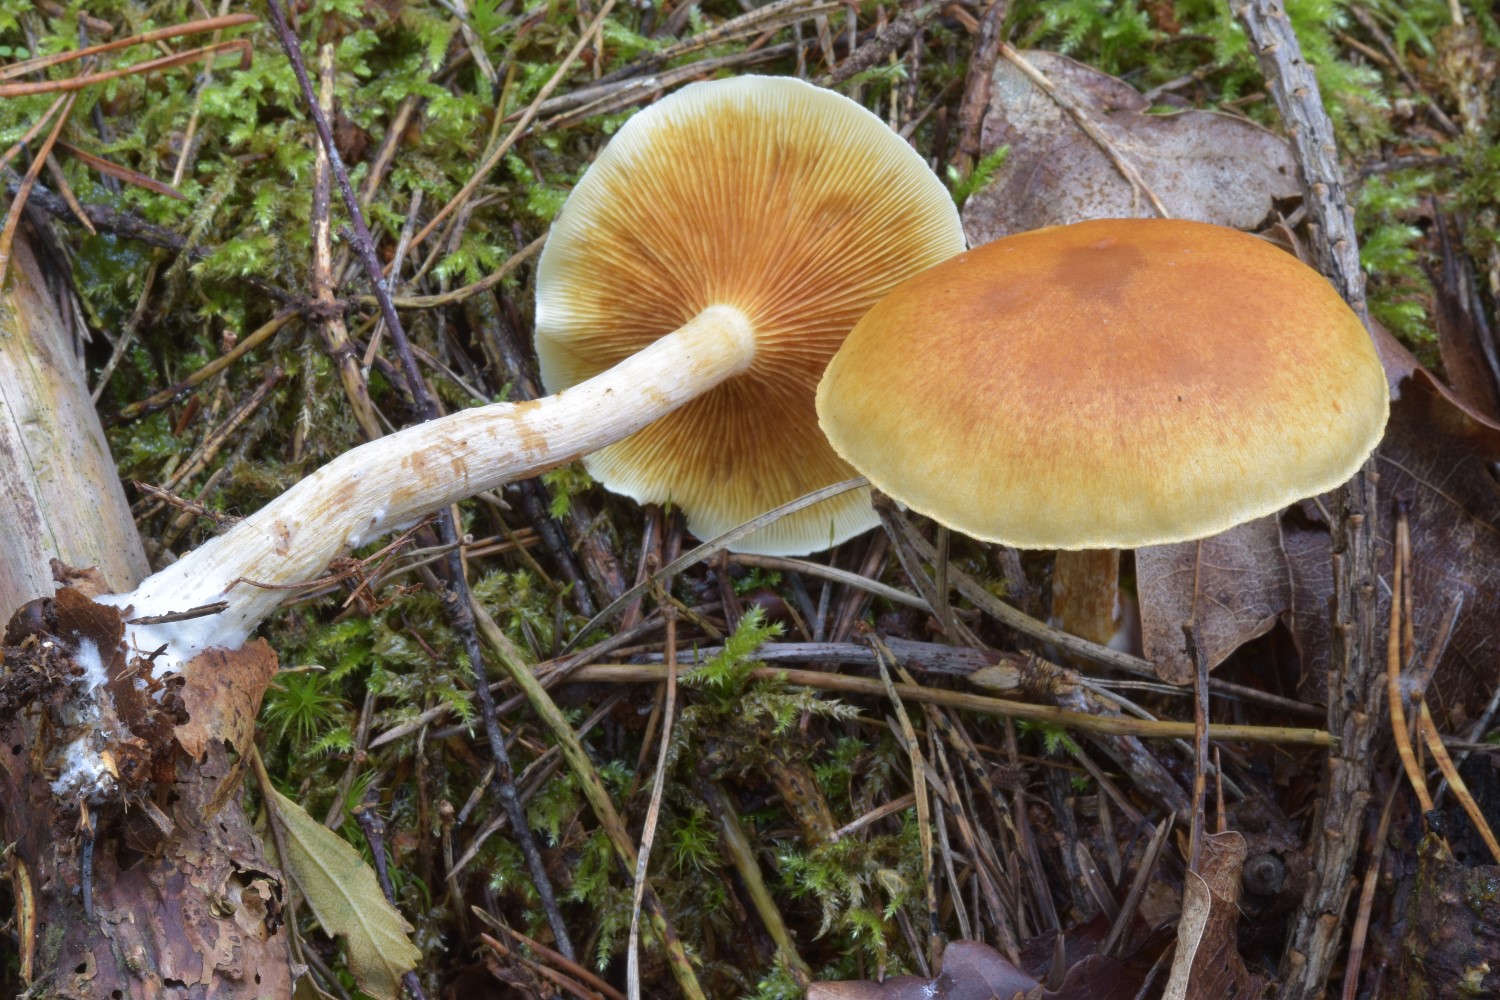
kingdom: Fungi
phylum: Basidiomycota
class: Agaricomycetes
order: Agaricales
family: Hymenogastraceae
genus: Gymnopilus
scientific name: Gymnopilus penetrans
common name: plettet flammehat
